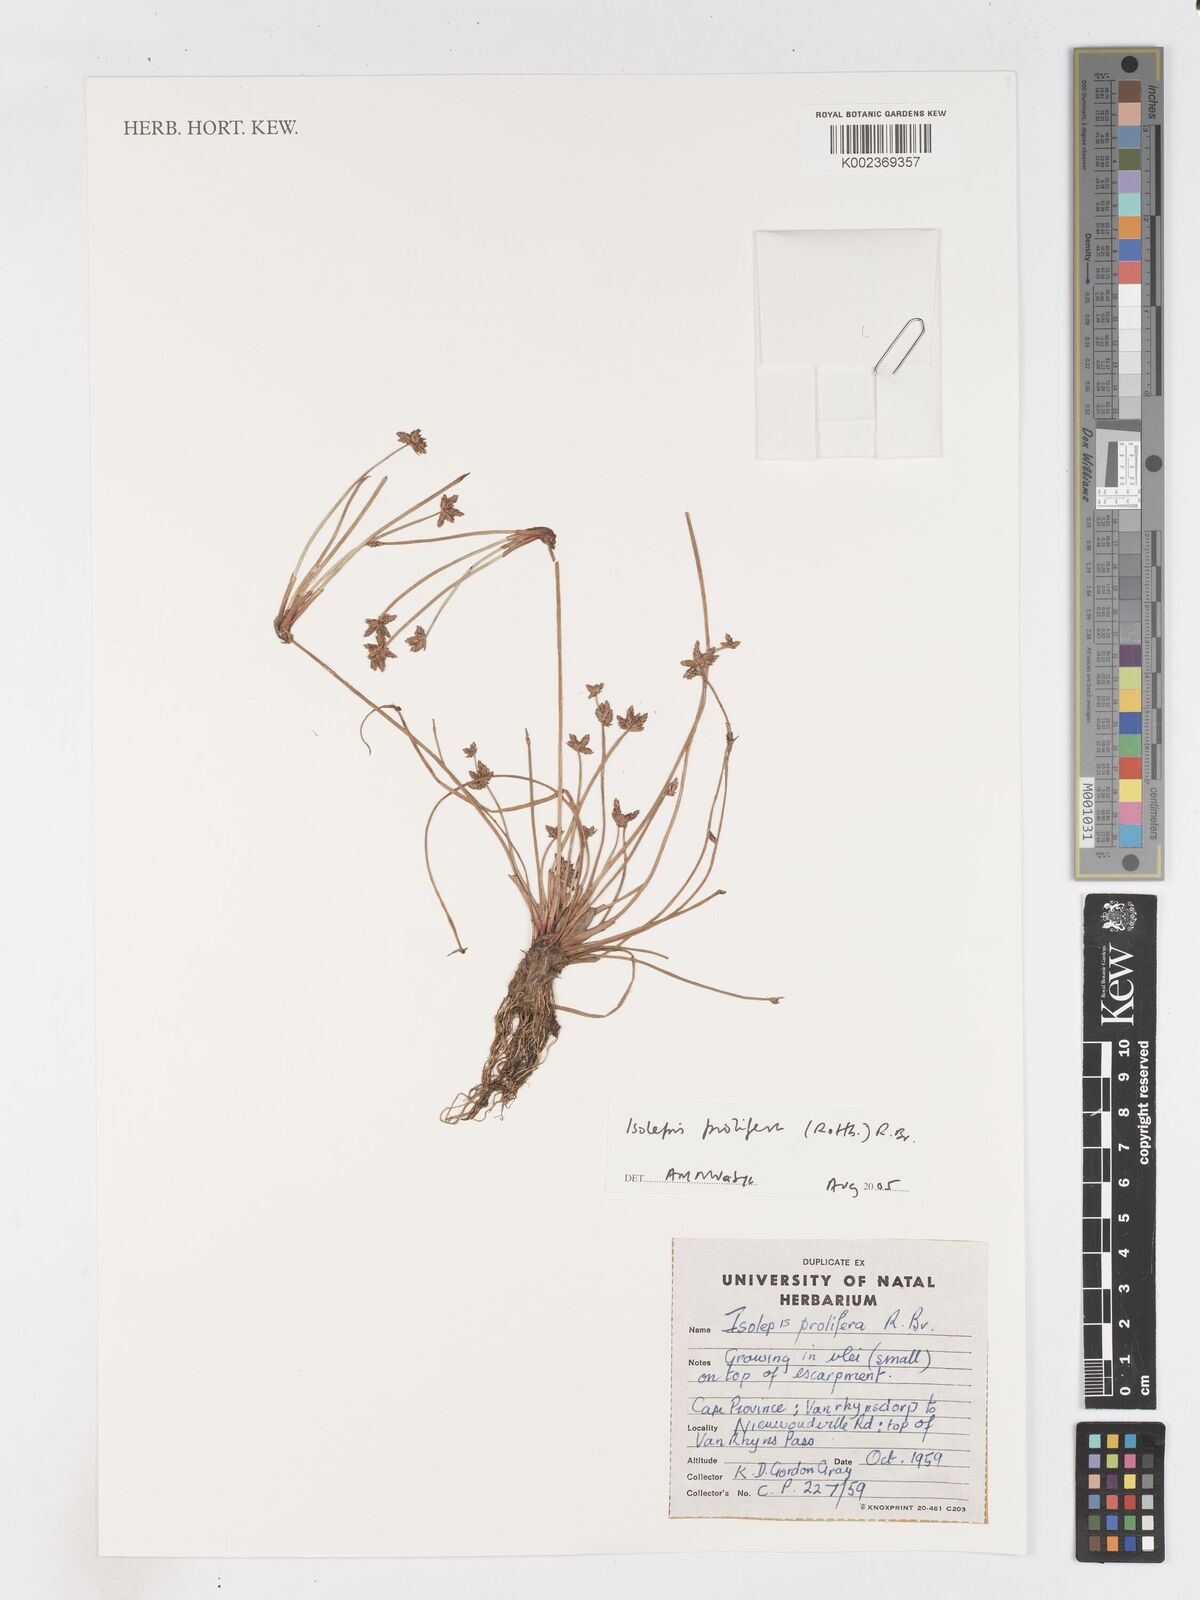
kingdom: Plantae
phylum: Tracheophyta
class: Liliopsida
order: Poales
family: Cyperaceae
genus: Isolepis
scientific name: Isolepis prolifera
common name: Proliferating bulrush
